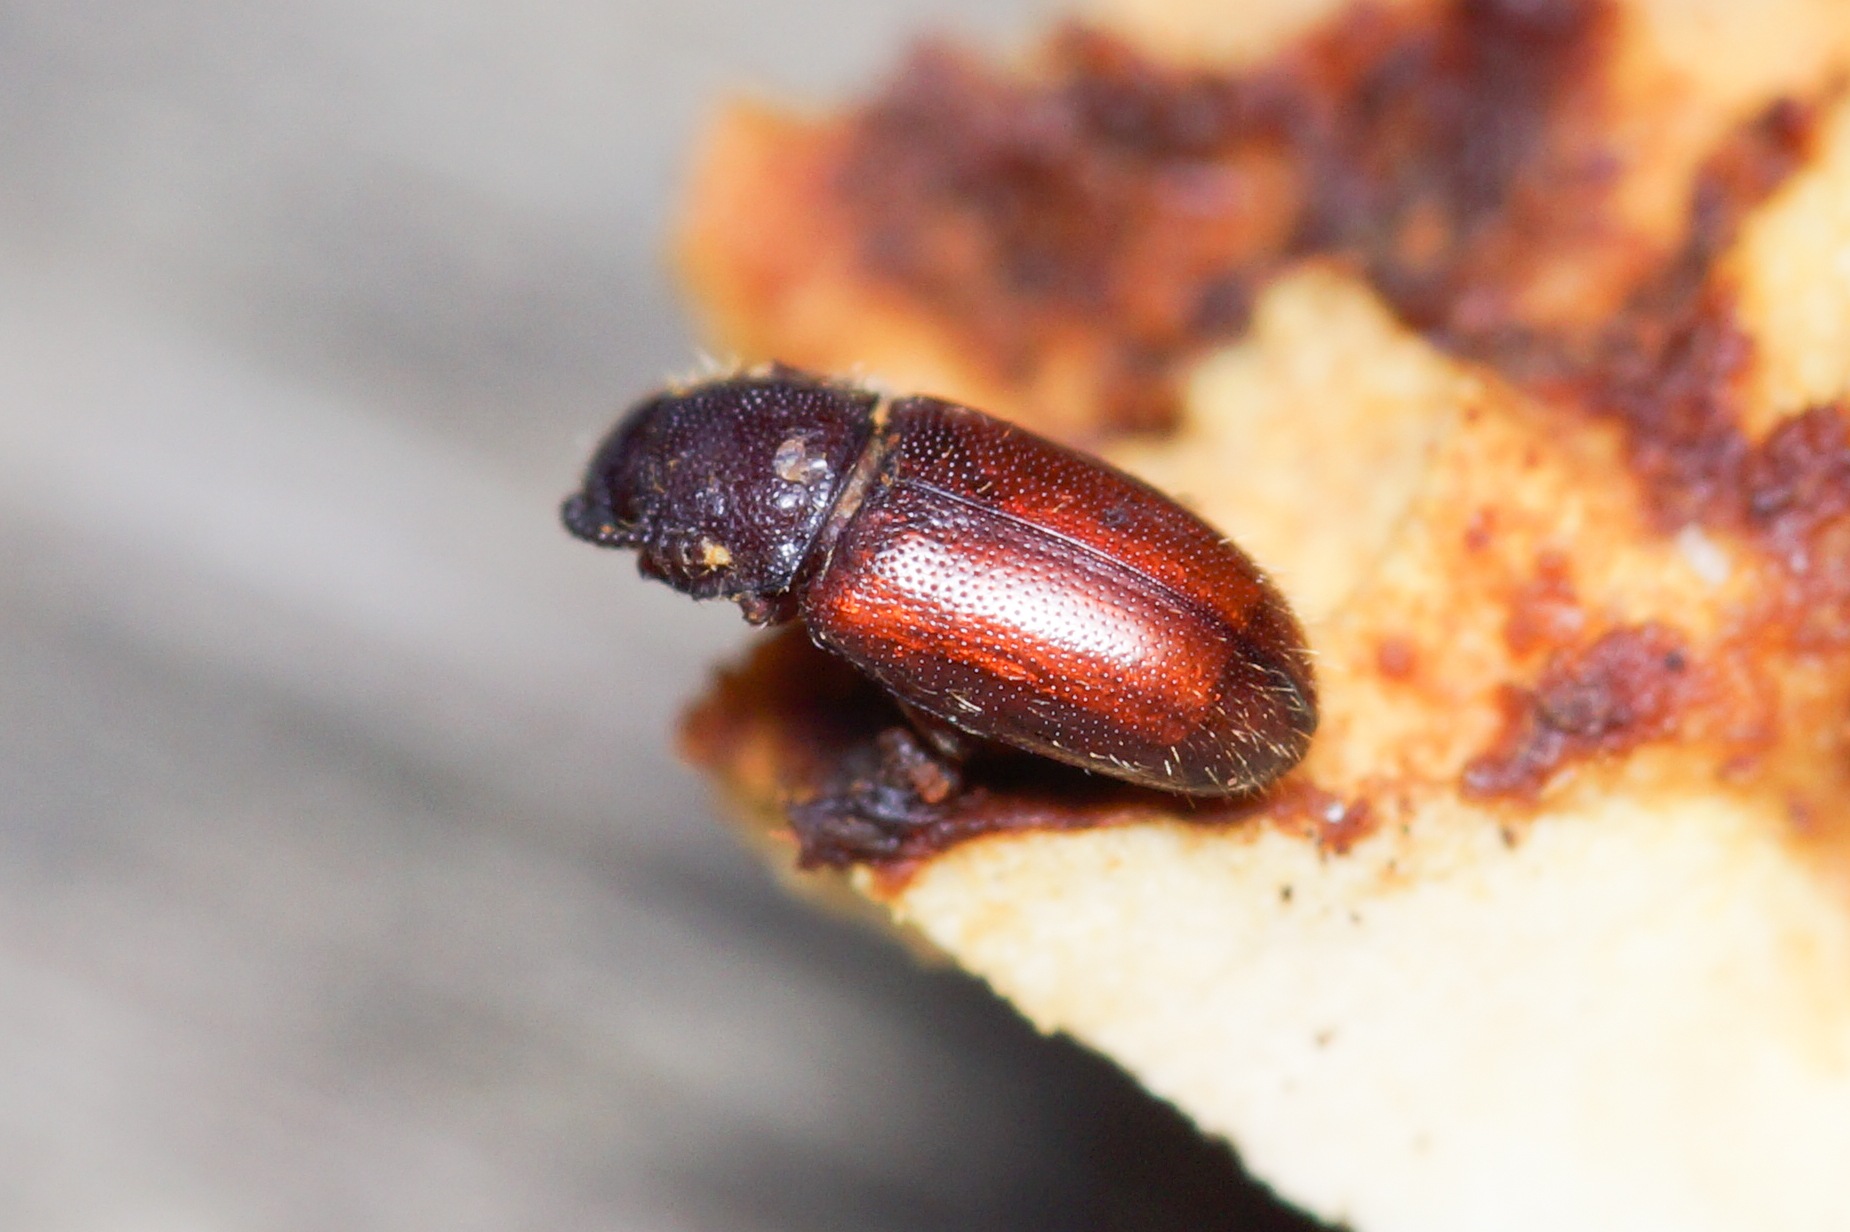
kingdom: Animalia
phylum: Arthropoda
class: Insecta
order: Coleoptera
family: Cryptophagidae
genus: Cryptophagus
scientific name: Cryptophagus lycoperdi
